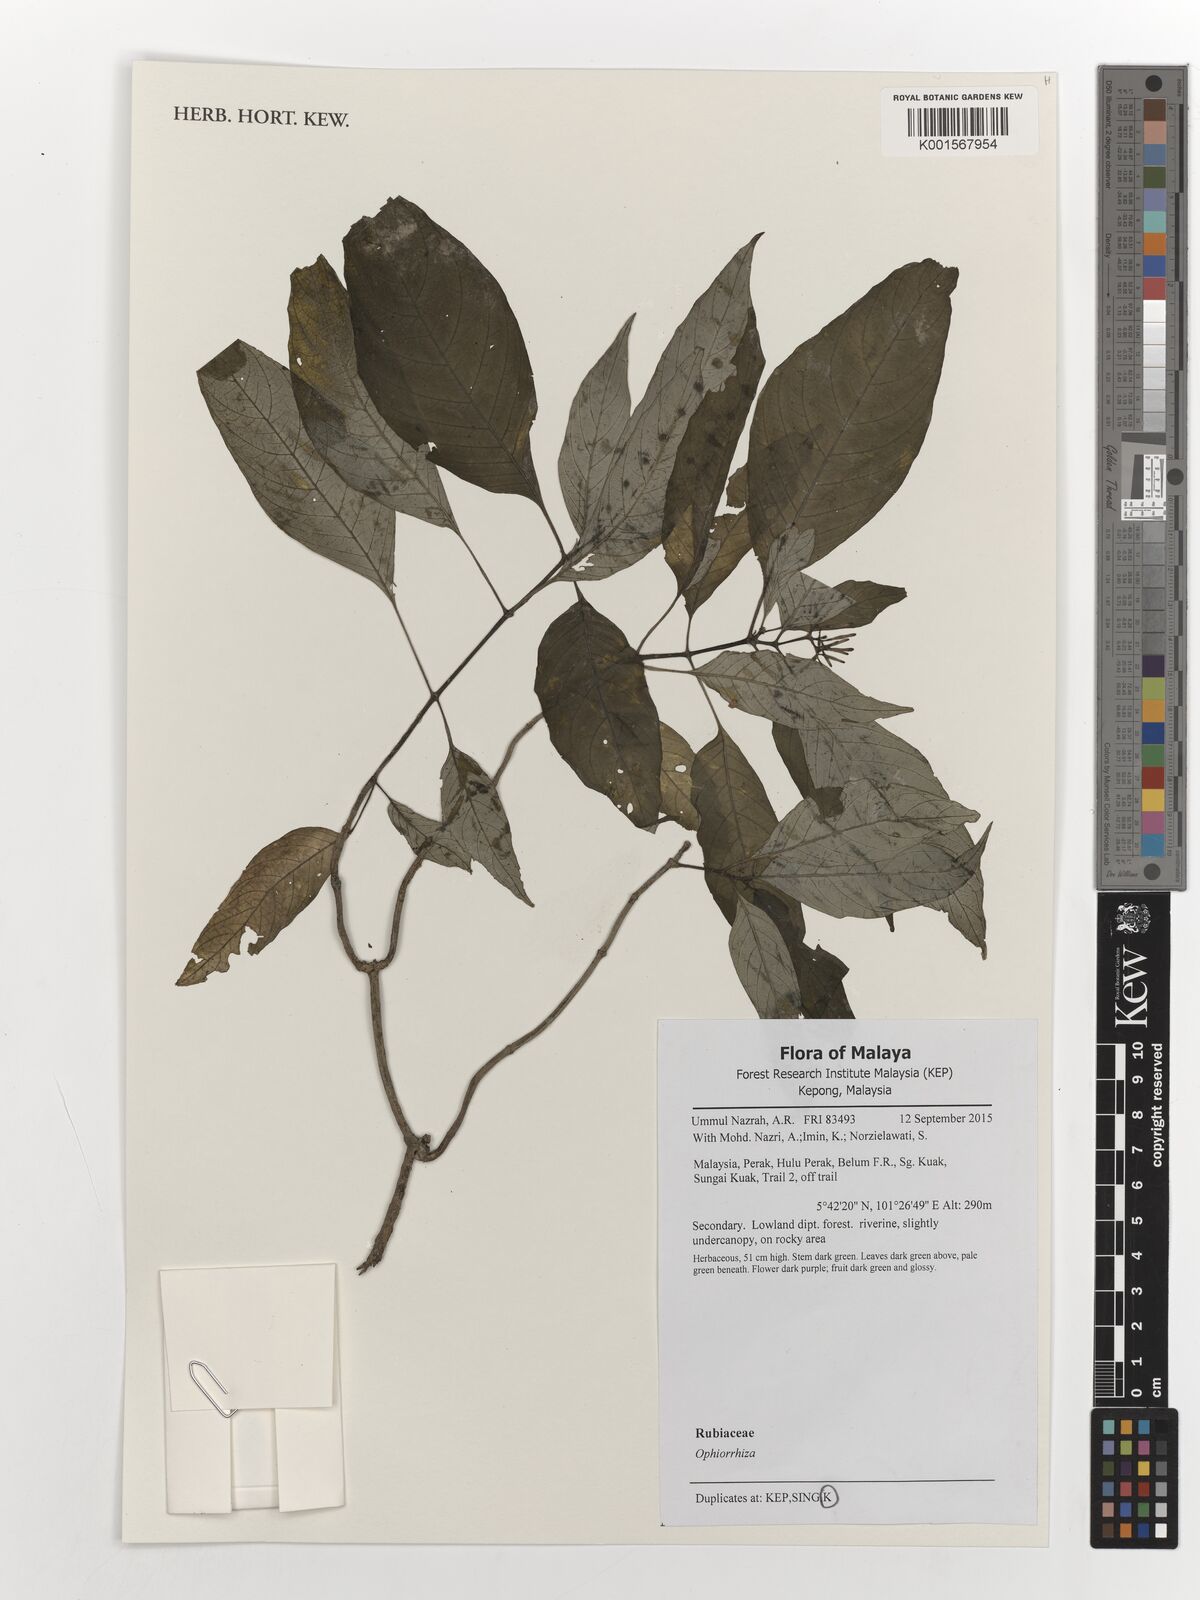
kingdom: Plantae
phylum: Tracheophyta
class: Magnoliopsida
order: Gentianales
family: Rubiaceae
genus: Ophiorrhiza
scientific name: Ophiorrhiza
